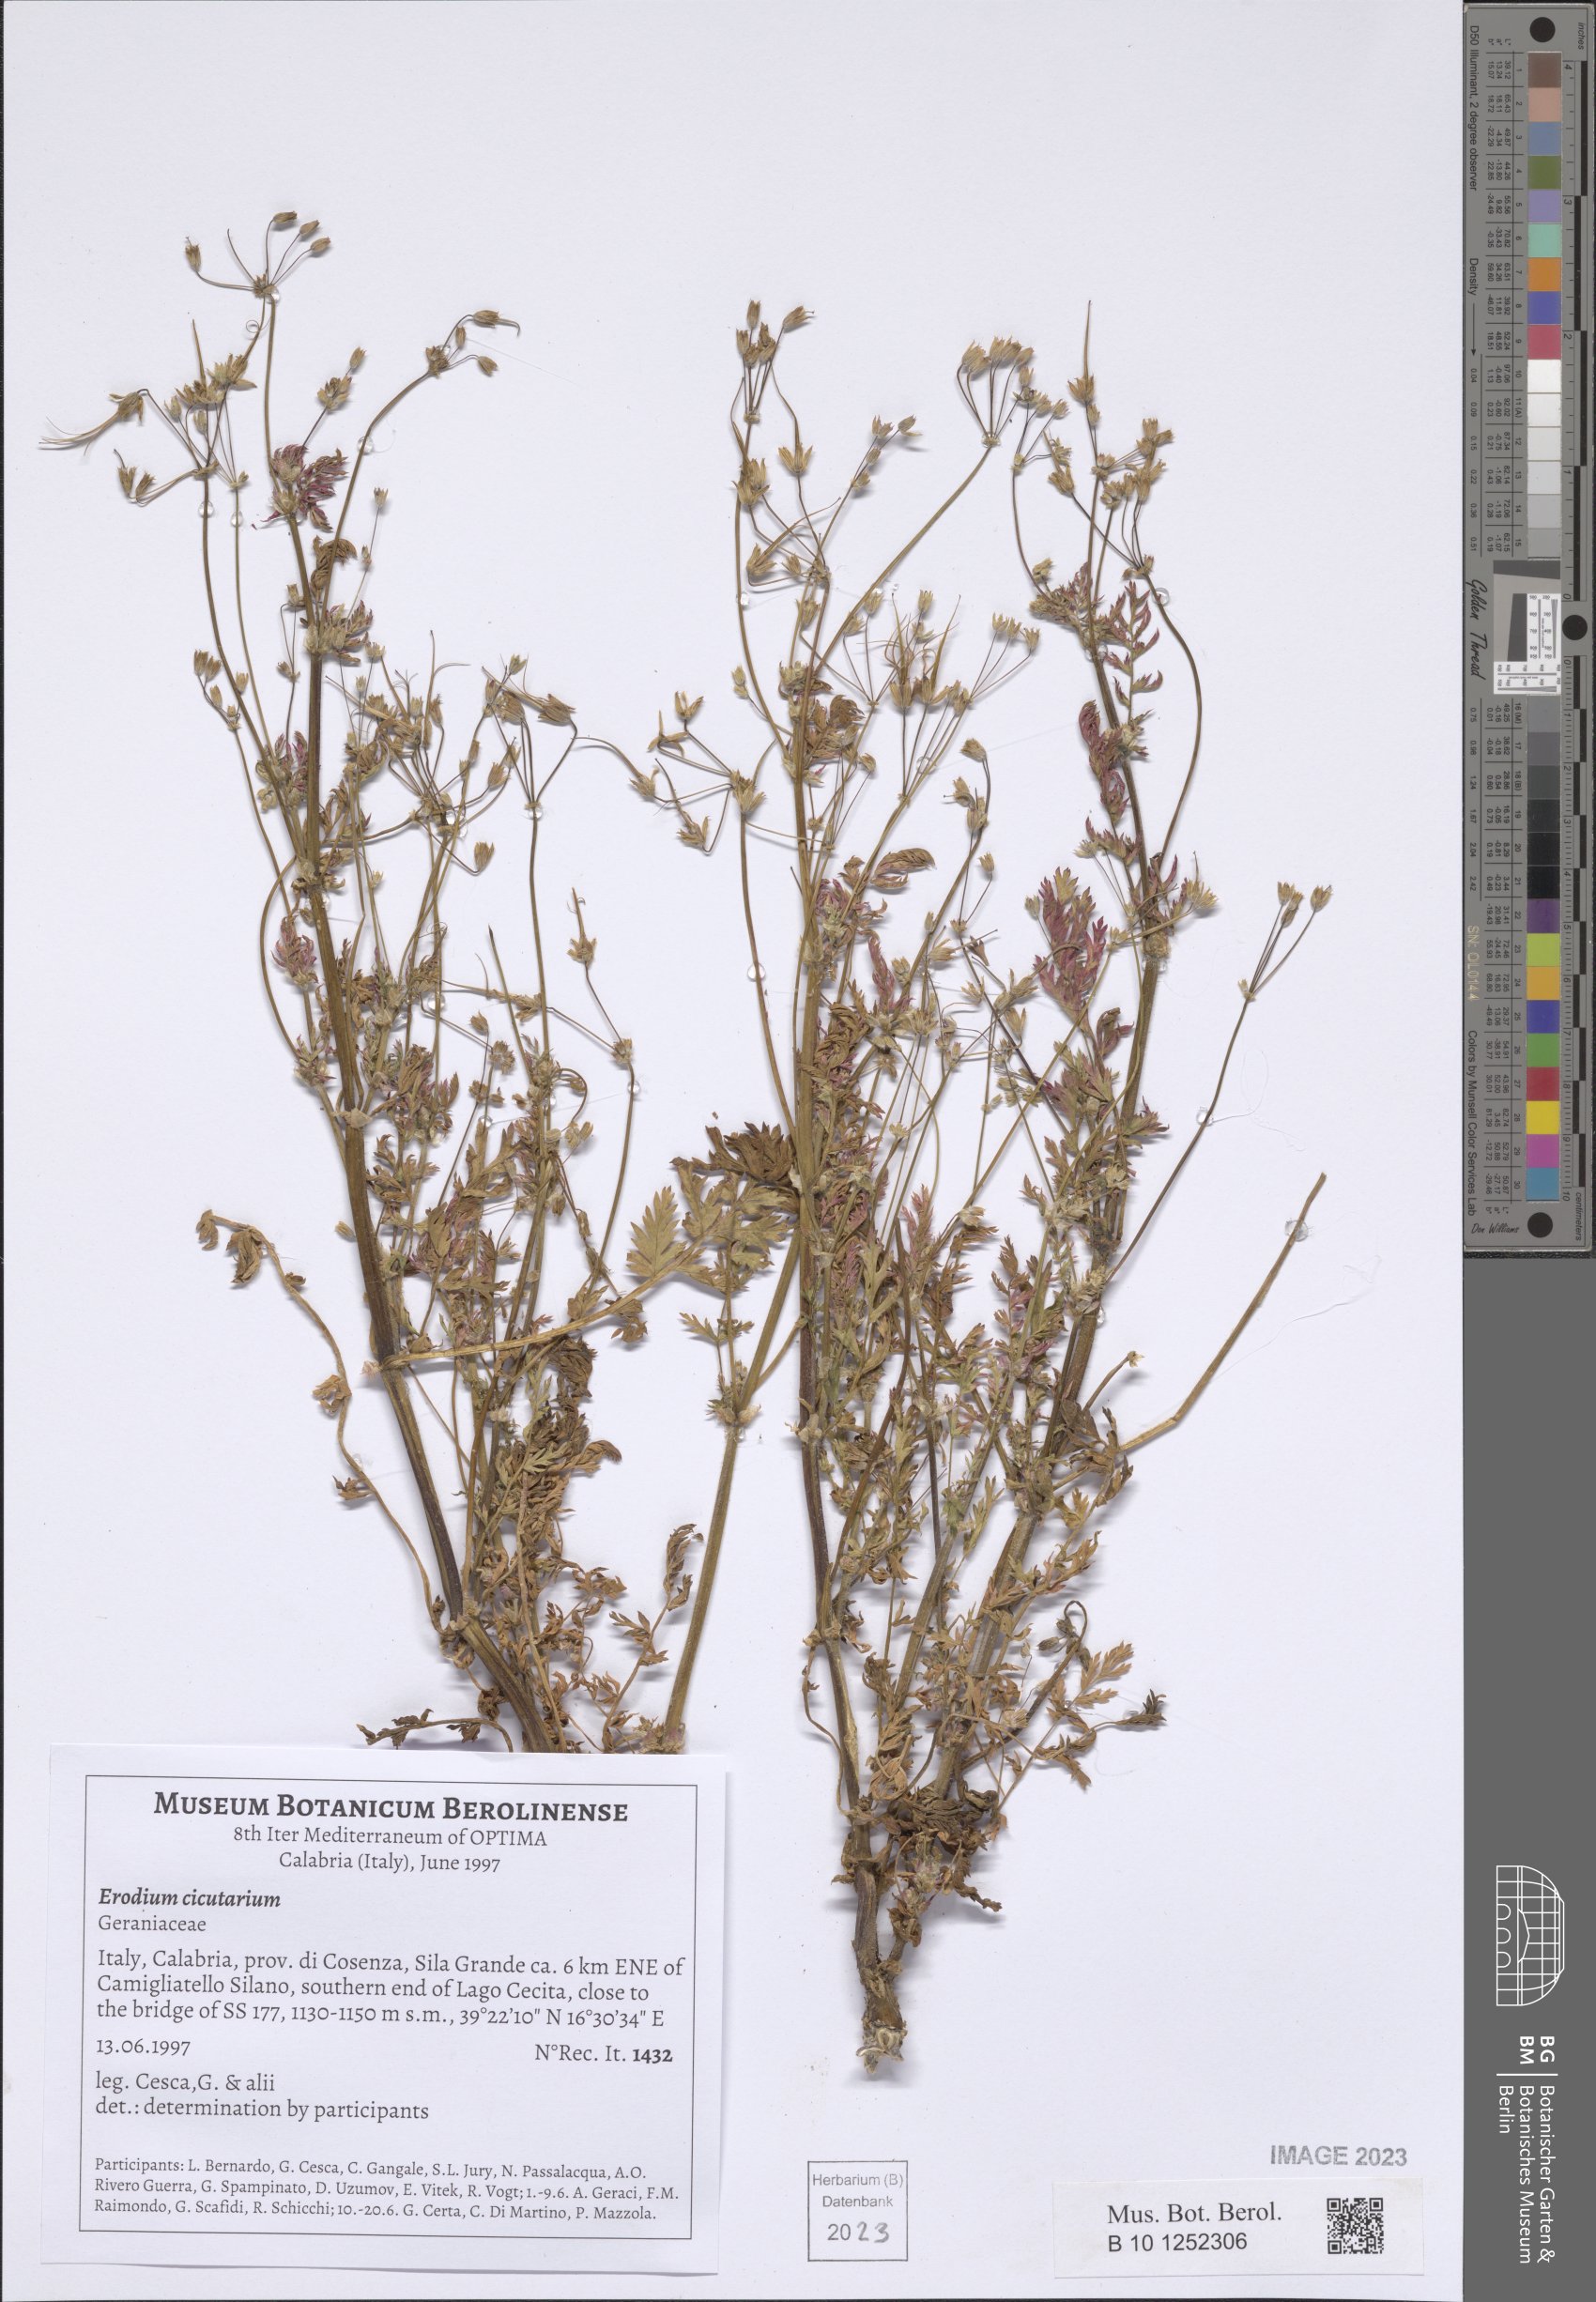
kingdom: Plantae
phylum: Tracheophyta
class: Magnoliopsida
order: Geraniales
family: Geraniaceae
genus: Erodium
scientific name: Erodium cicutarium
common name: Common stork's-bill
